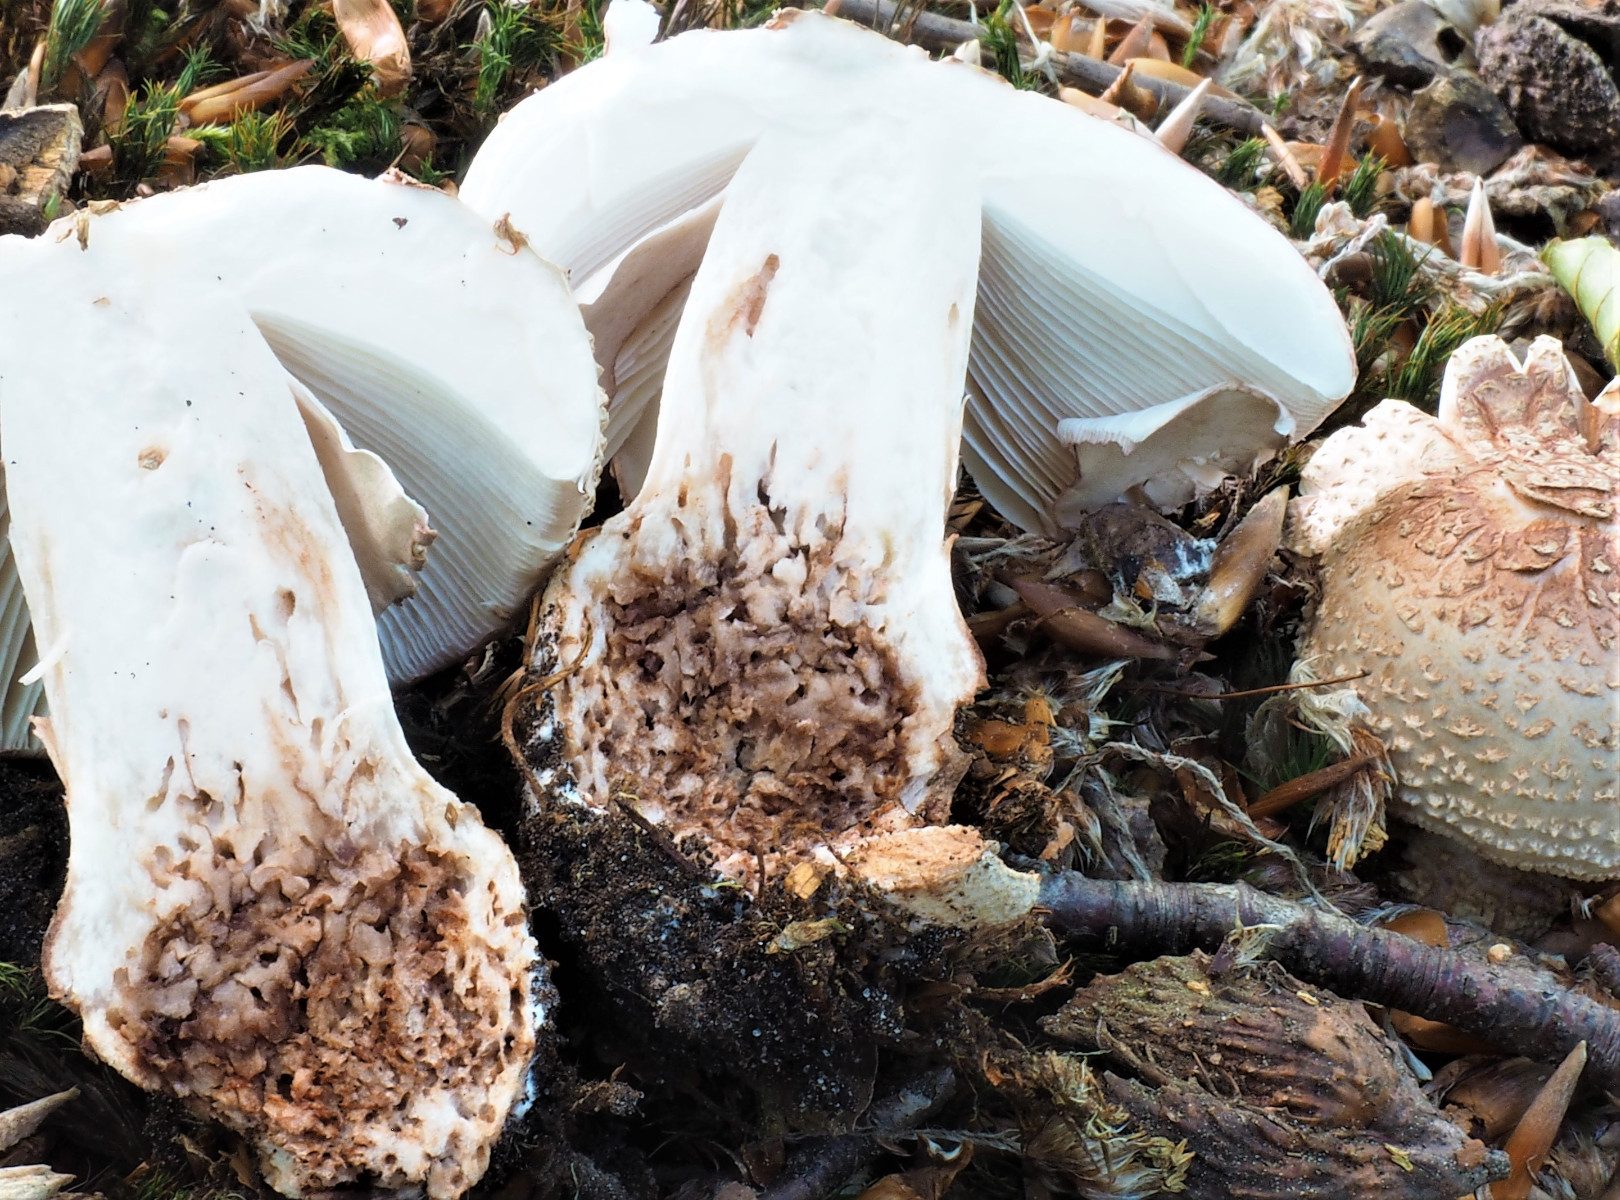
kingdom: Fungi
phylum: Basidiomycota
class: Agaricomycetes
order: Agaricales
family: Amanitaceae
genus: Amanita
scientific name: Amanita rubescens
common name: rødmende fluesvamp
